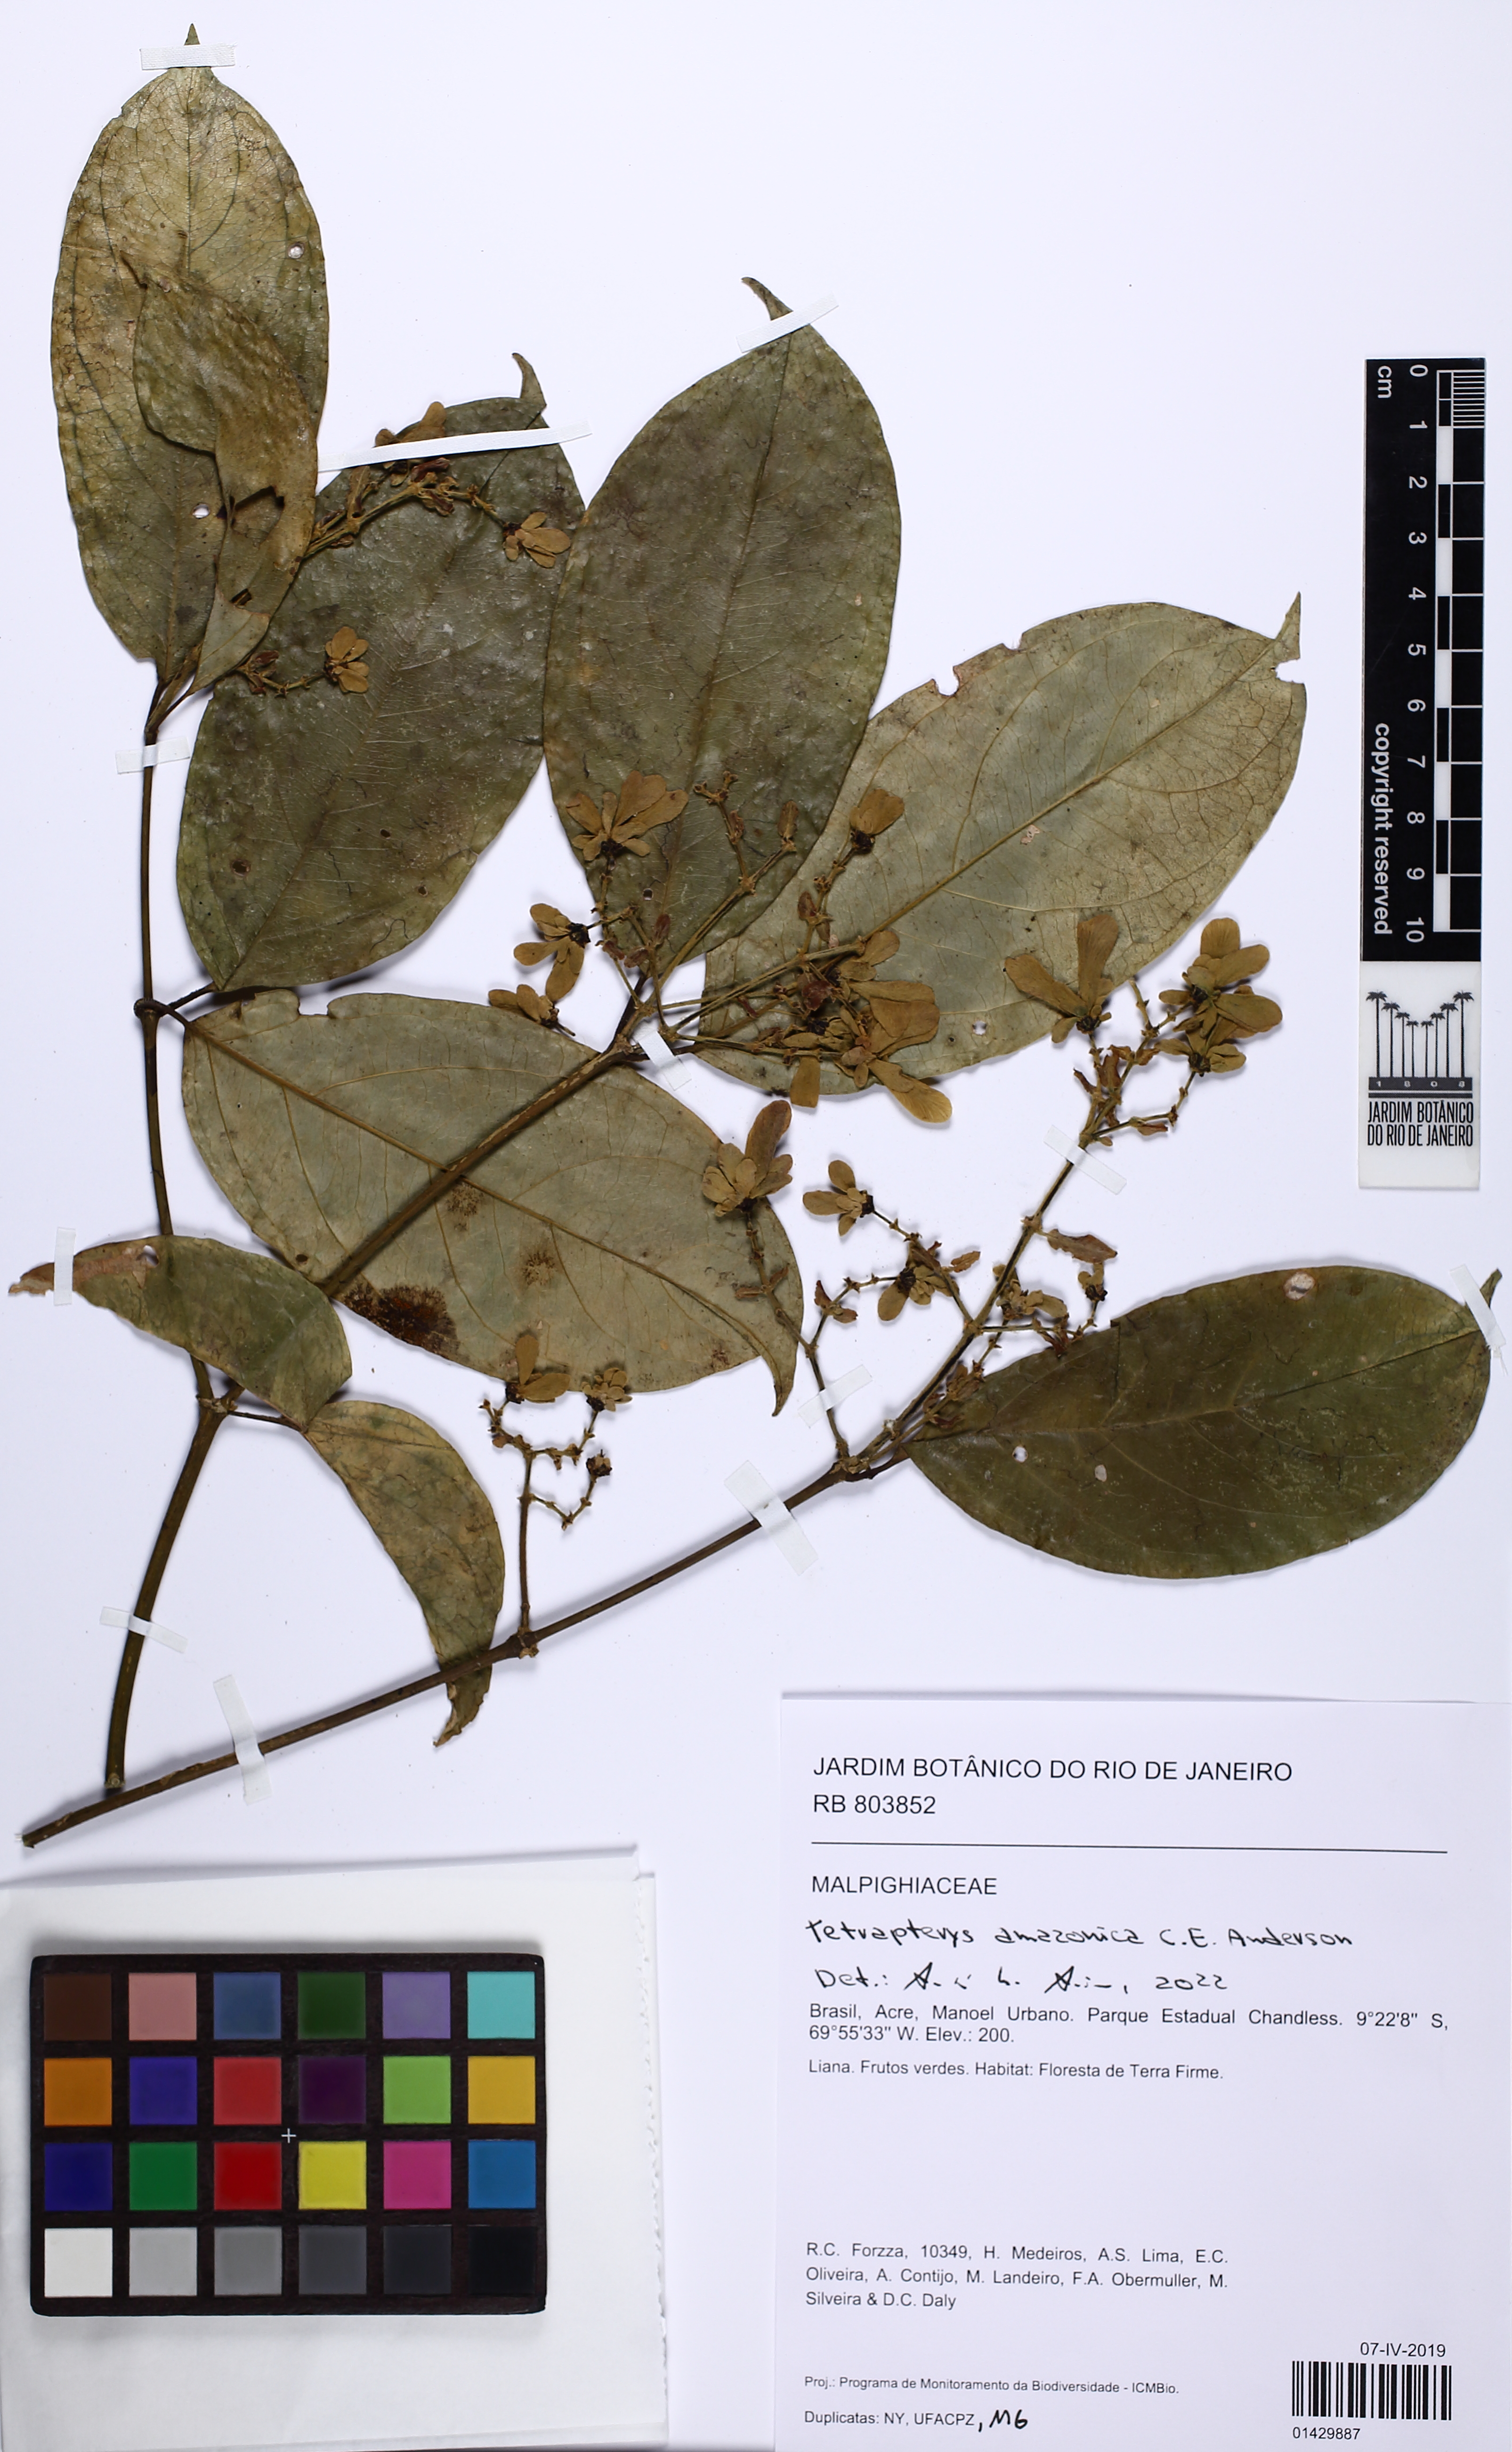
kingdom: Plantae
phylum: Tracheophyta
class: Magnoliopsida
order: Malpighiales
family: Malpighiaceae
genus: Tetrapterys
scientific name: Tetrapterys amazonica
